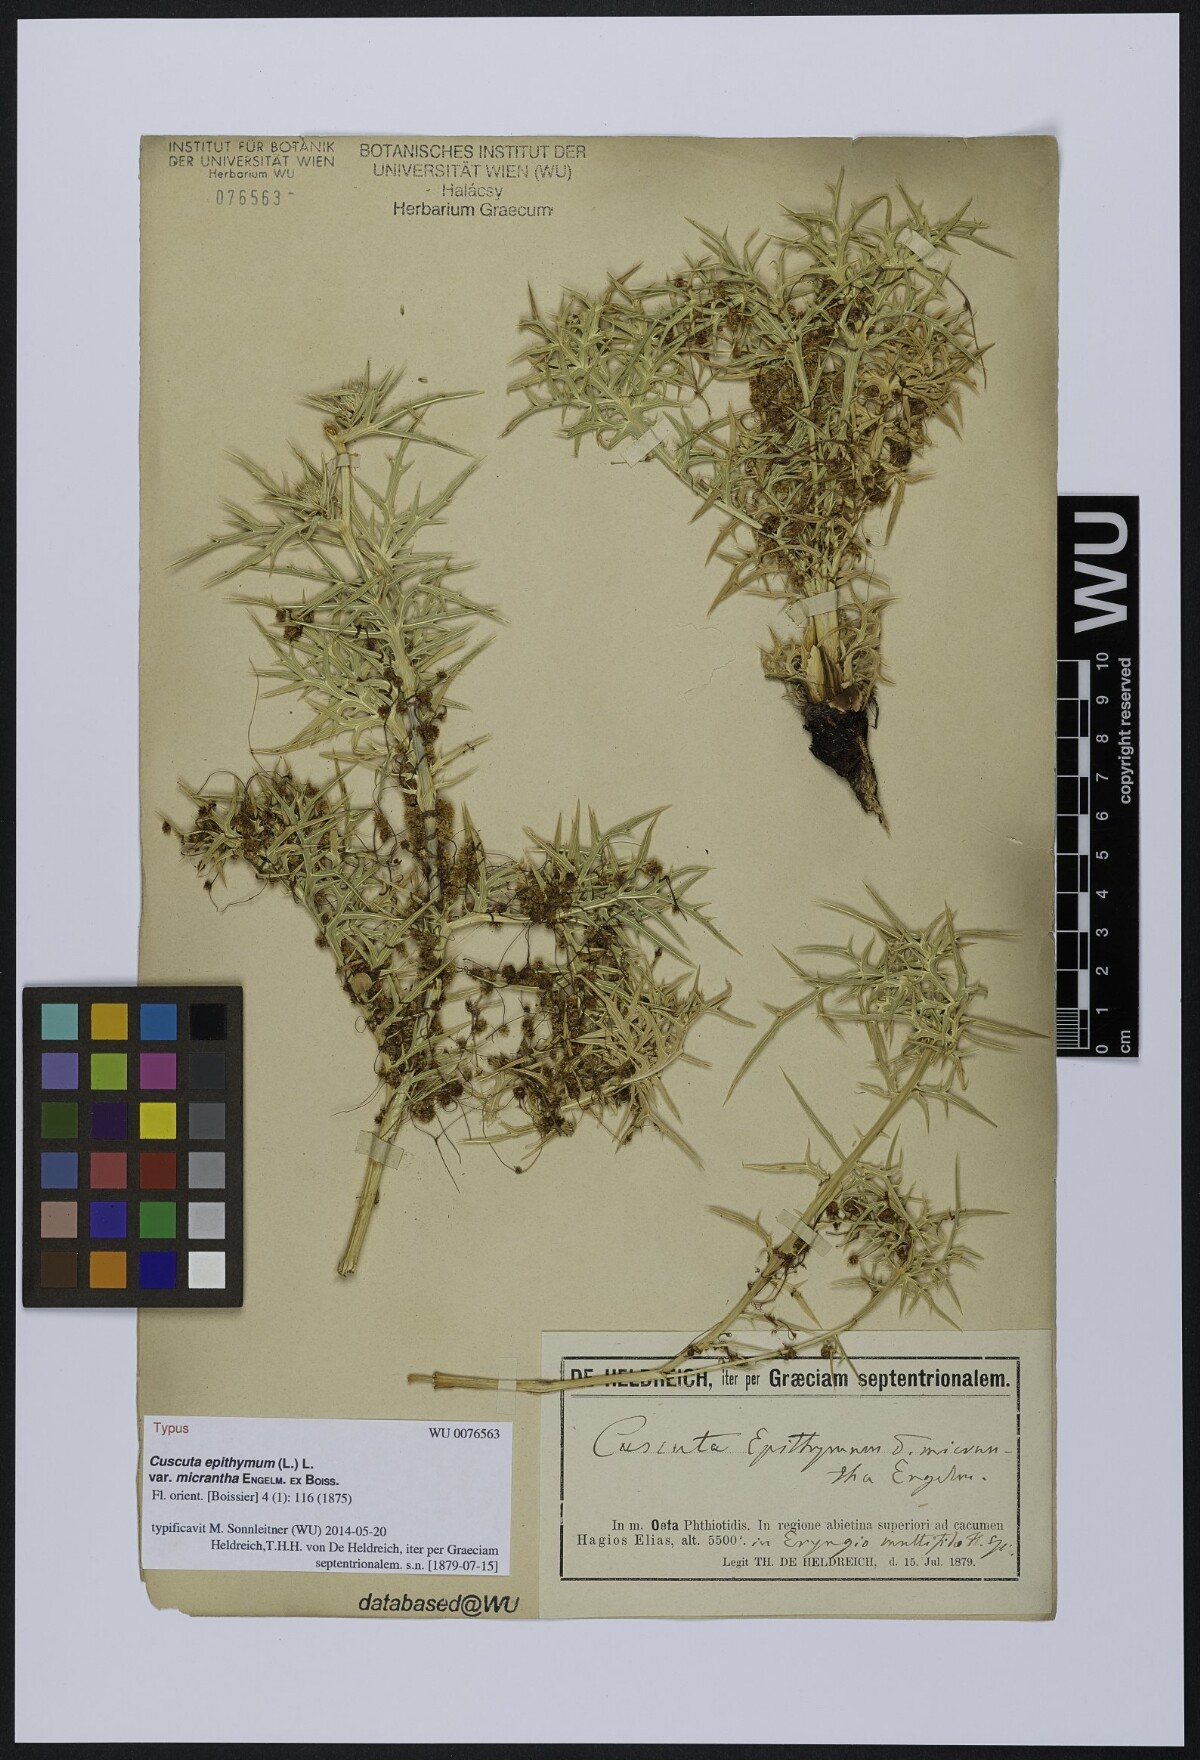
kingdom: Plantae
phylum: Tracheophyta
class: Magnoliopsida
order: Solanales
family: Convolvulaceae
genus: Cuscuta
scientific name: Cuscuta epithymum
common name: Clover dodder
